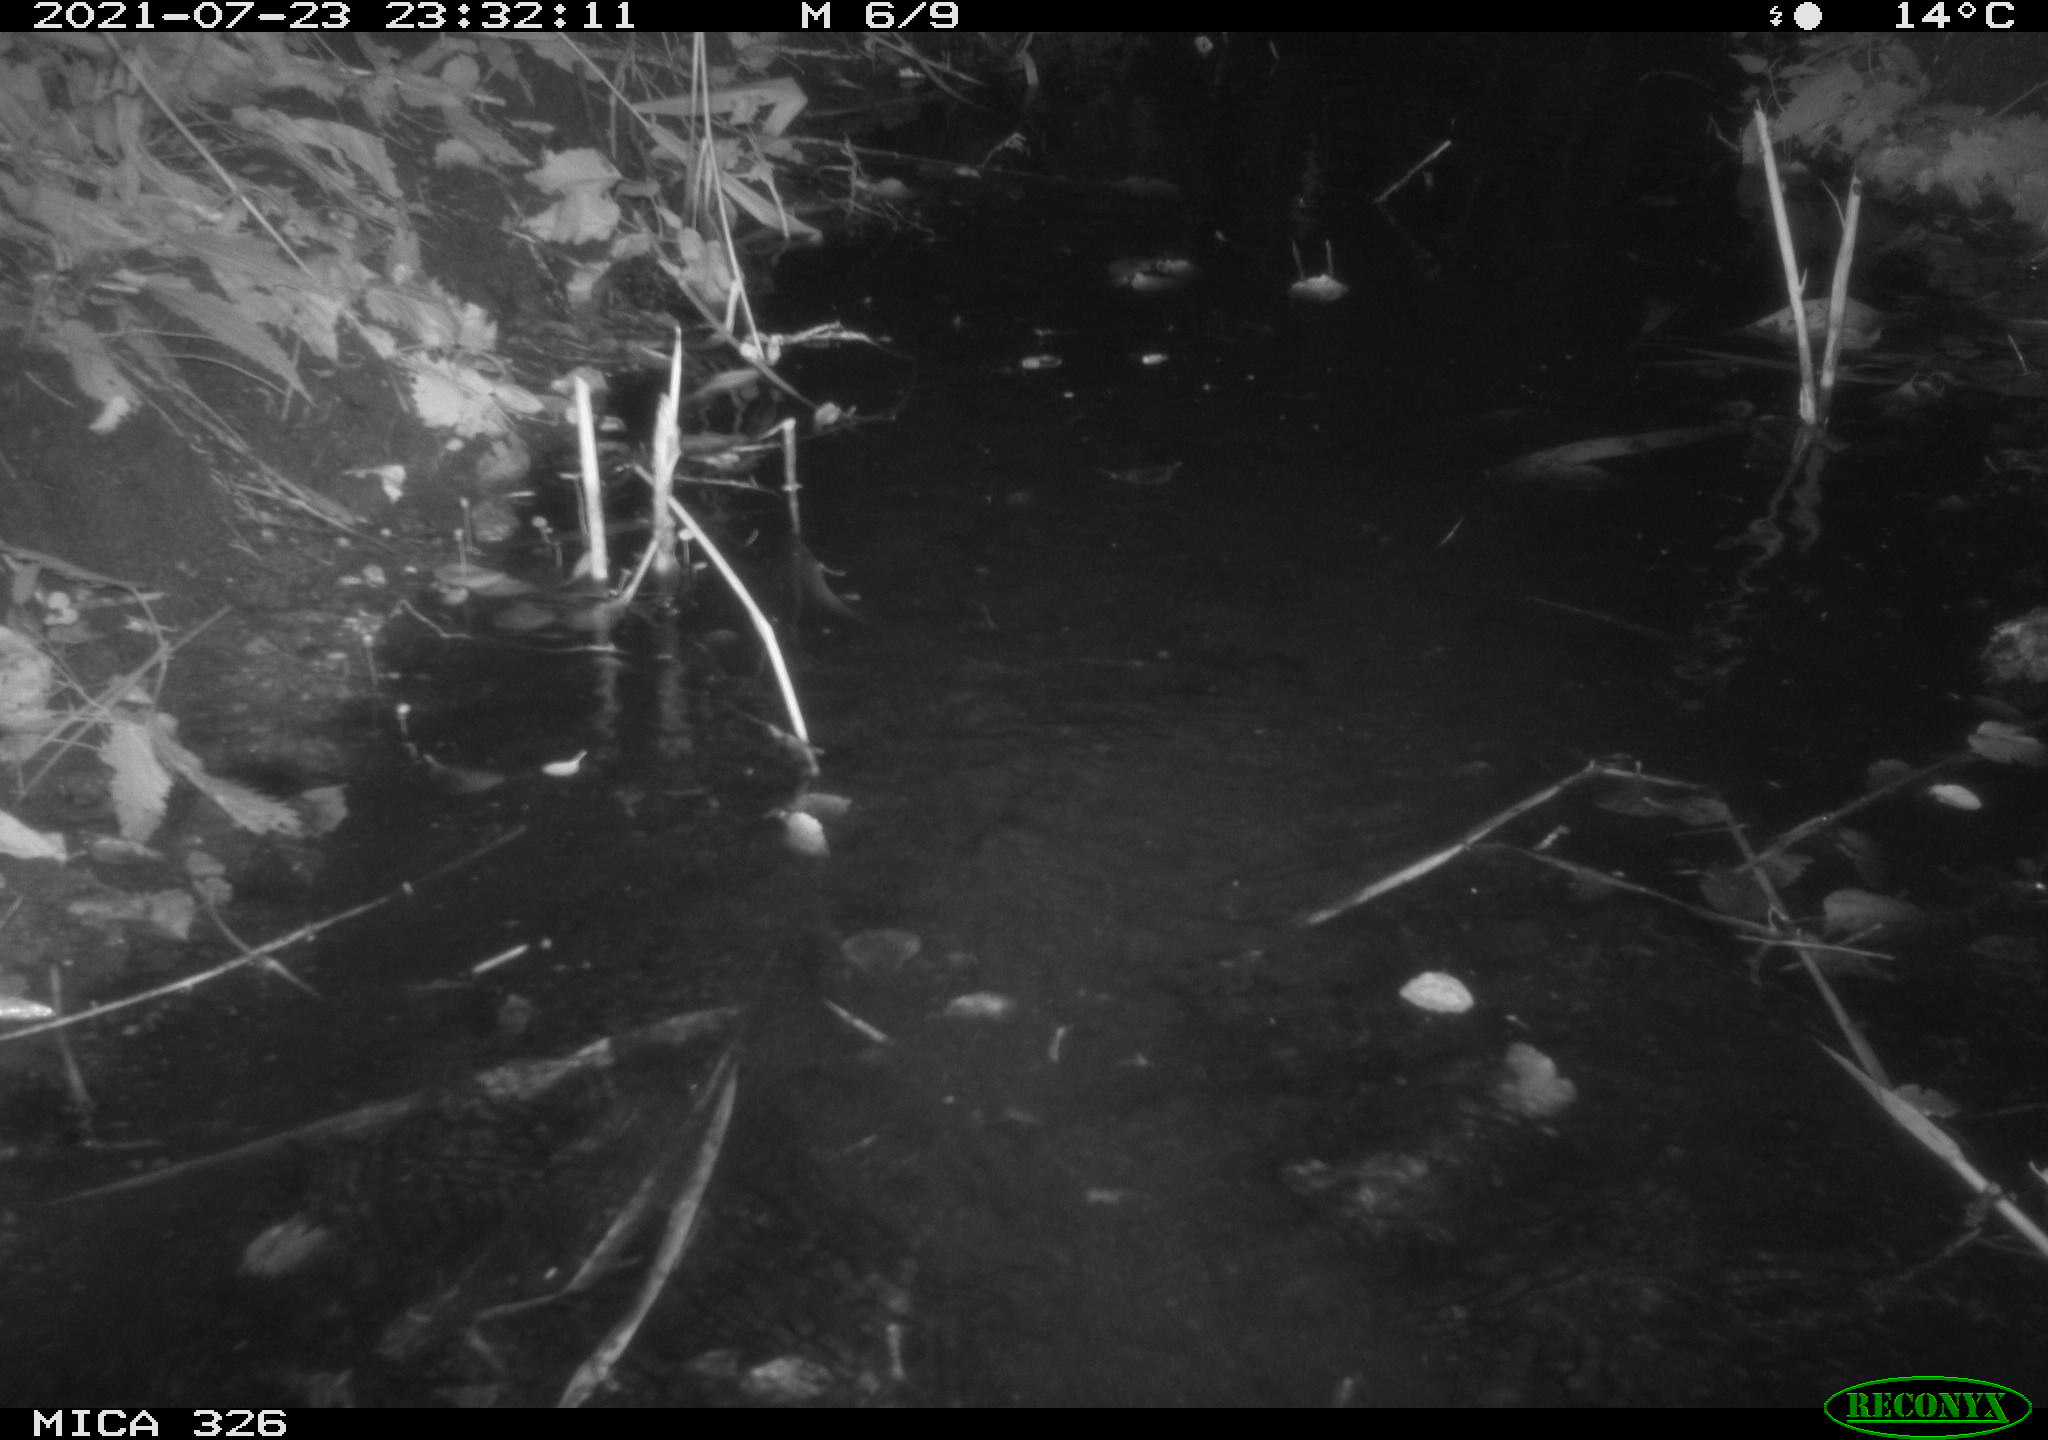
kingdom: Animalia
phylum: Chordata
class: Mammalia
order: Rodentia
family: Myocastoridae
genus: Myocastor
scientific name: Myocastor coypus
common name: Coypu
